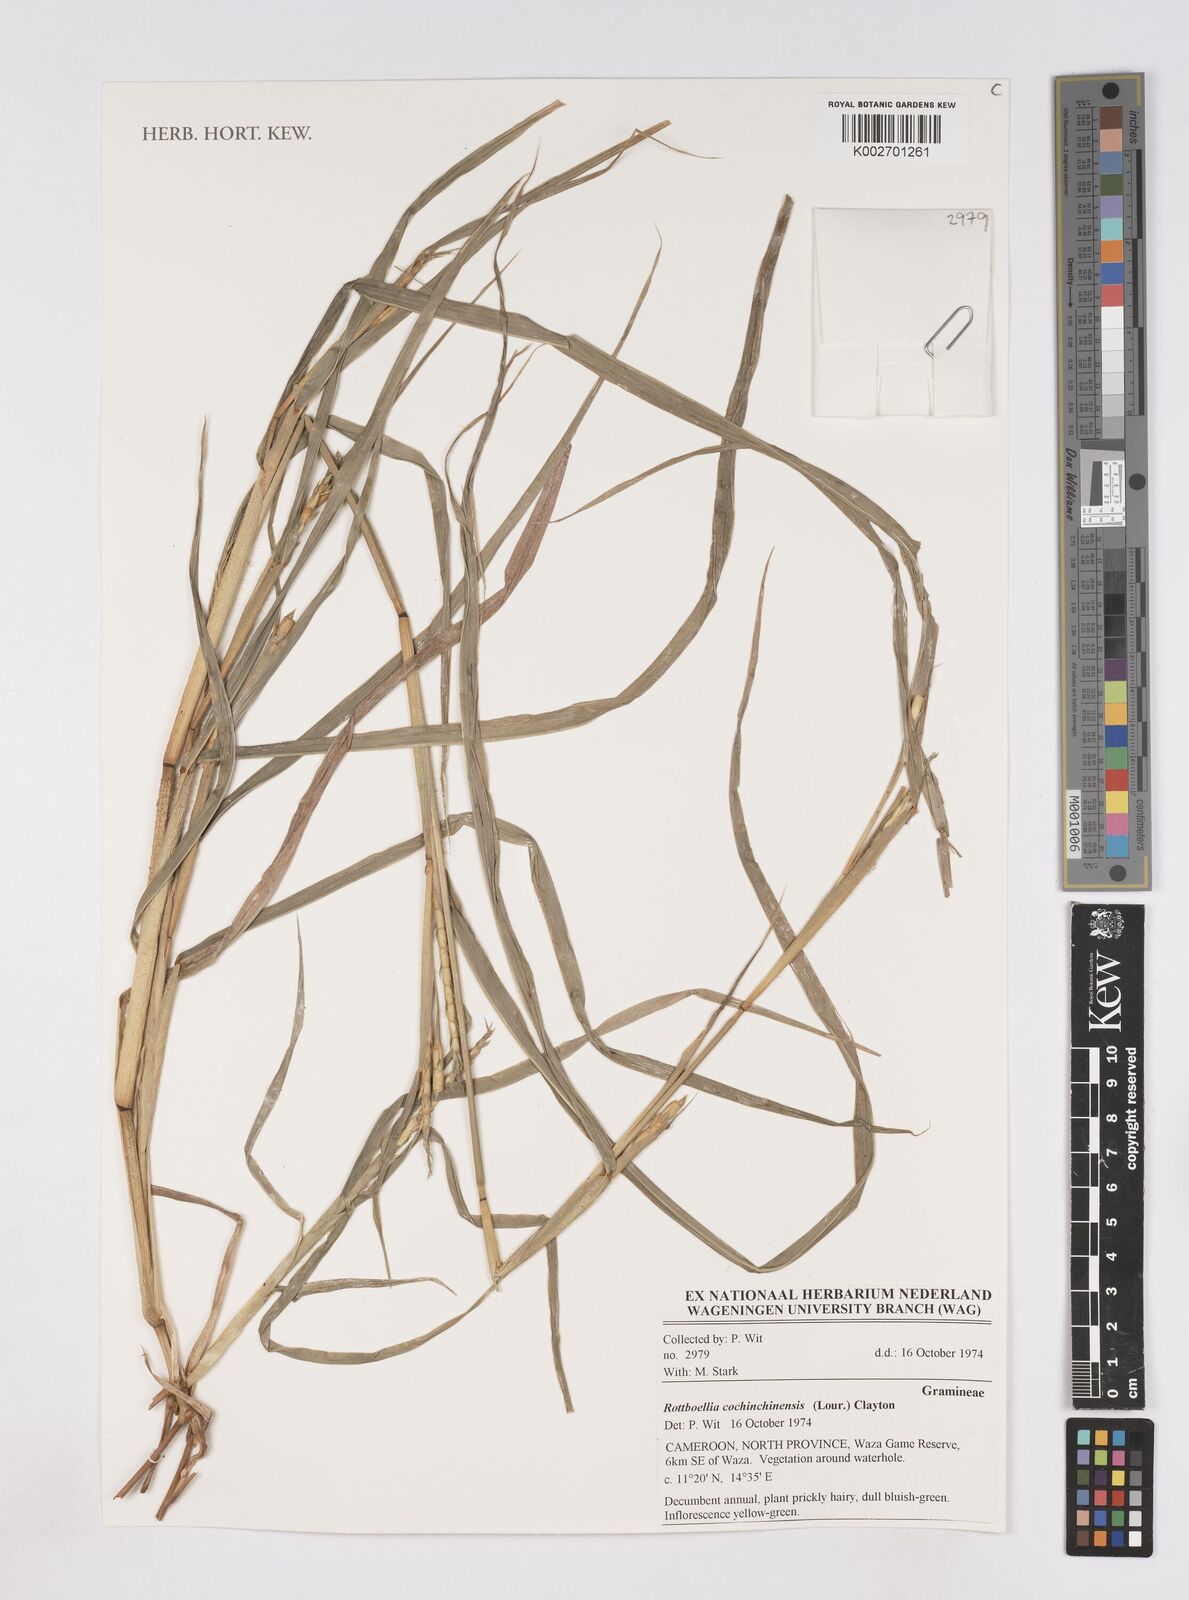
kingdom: Plantae
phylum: Tracheophyta
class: Liliopsida
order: Poales
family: Poaceae
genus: Rottboellia
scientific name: Rottboellia
